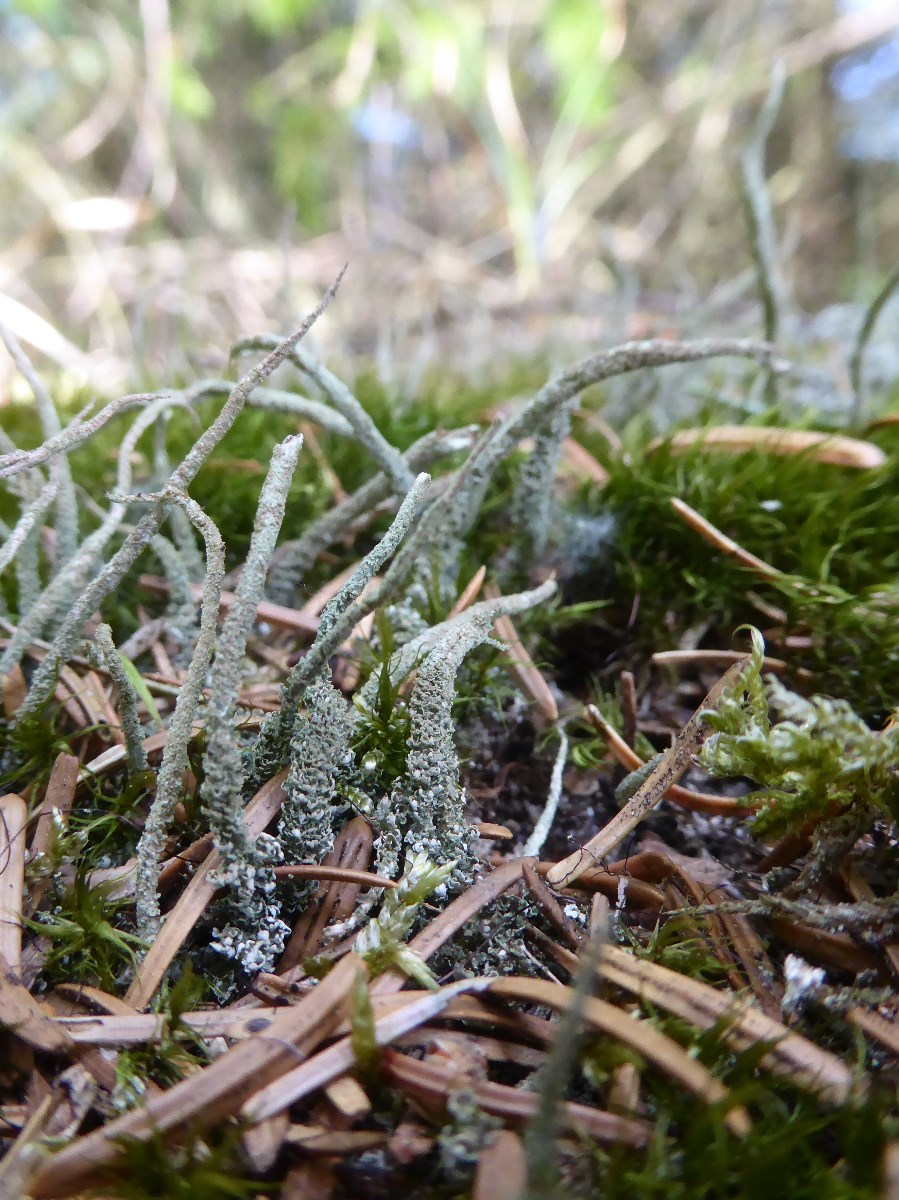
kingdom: Fungi
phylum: Ascomycota
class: Lecanoromycetes
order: Lecanorales
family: Cladoniaceae
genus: Cladonia
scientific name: Cladonia glauca
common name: grågrøn bægerlav
